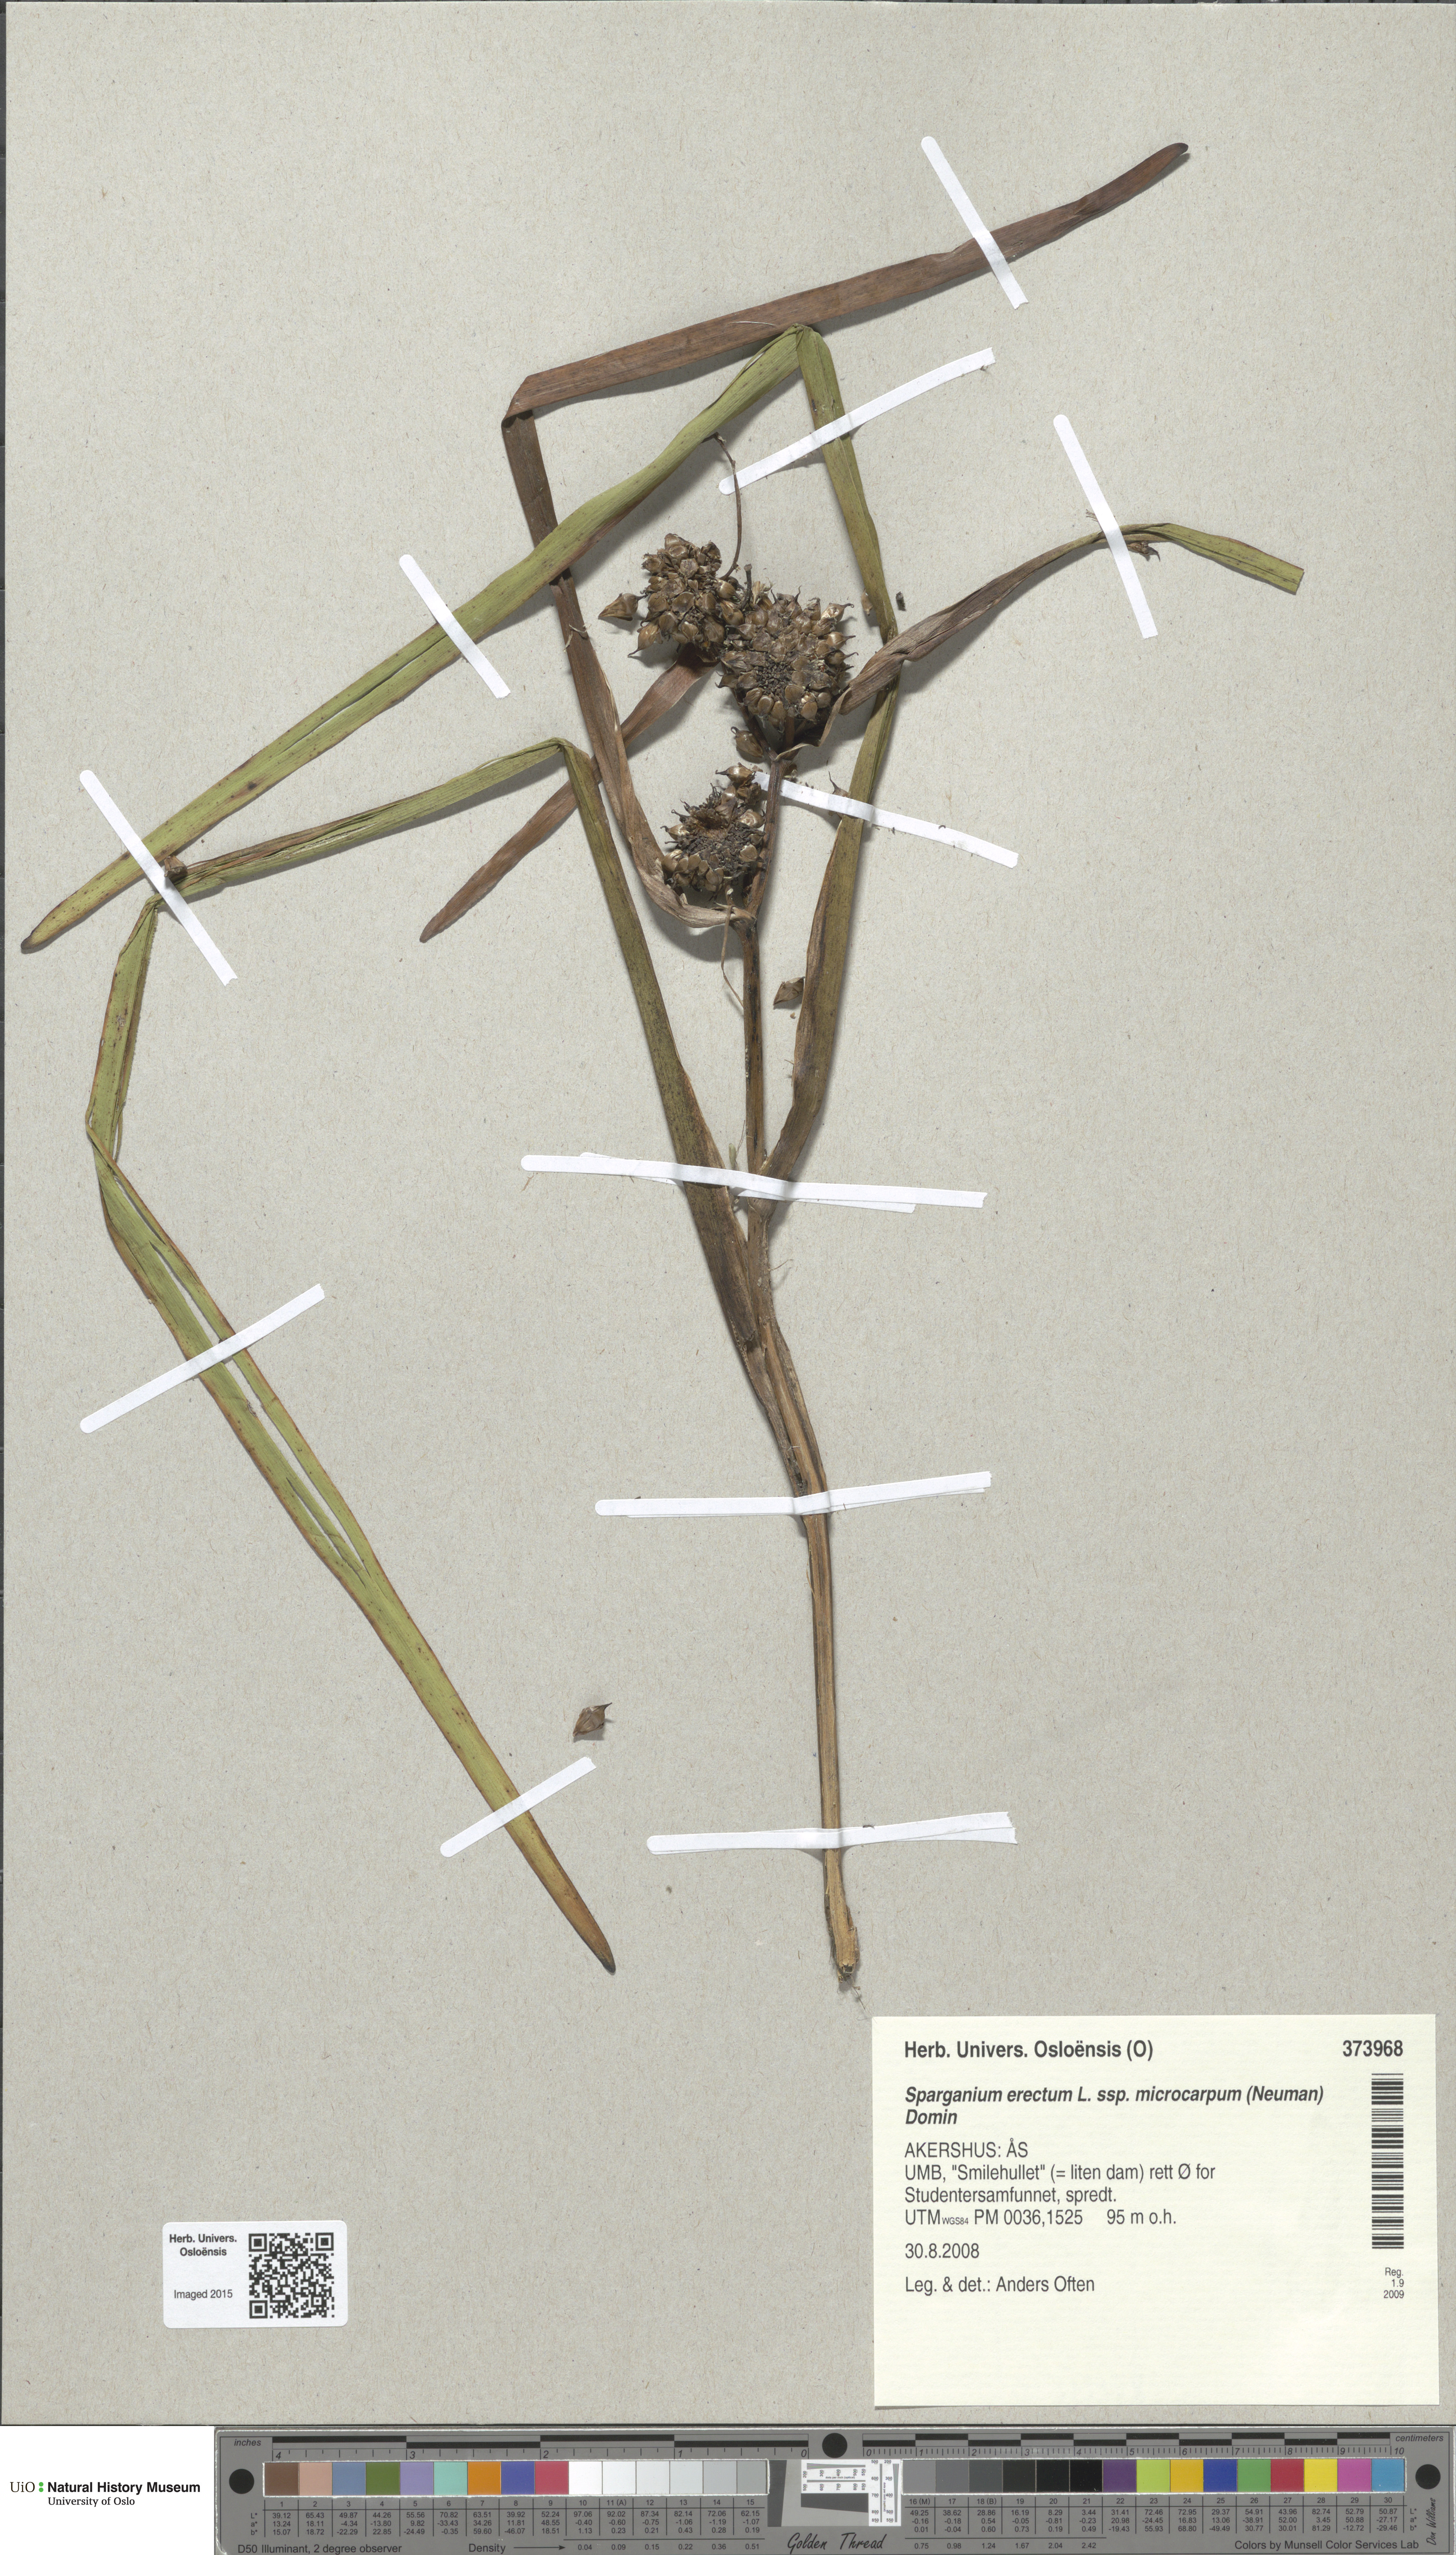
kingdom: Plantae
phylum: Tracheophyta
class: Liliopsida
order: Poales
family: Typhaceae
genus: Sparganium
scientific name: Sparganium erectum
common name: Branched bur-reed
